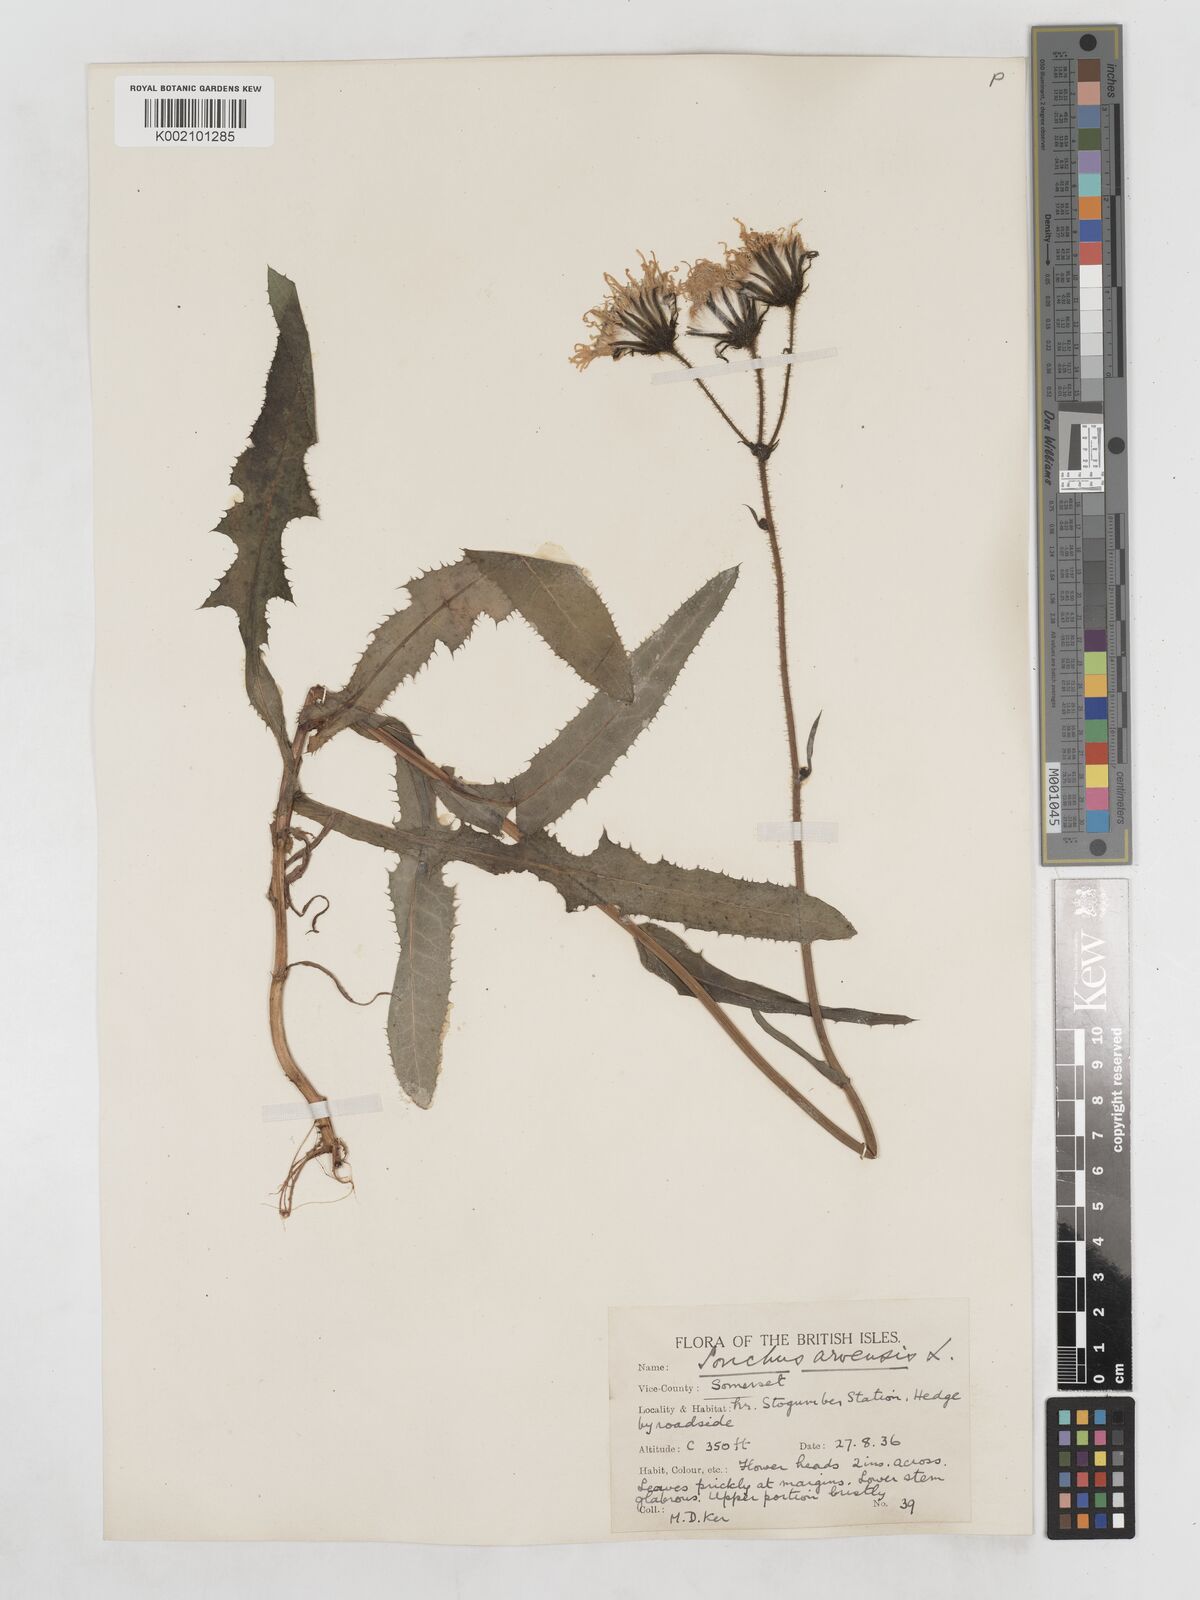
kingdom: Plantae
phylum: Tracheophyta
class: Magnoliopsida
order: Asterales
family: Asteraceae
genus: Sonchus
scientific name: Sonchus arvensis
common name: Perennial sow-thistle
